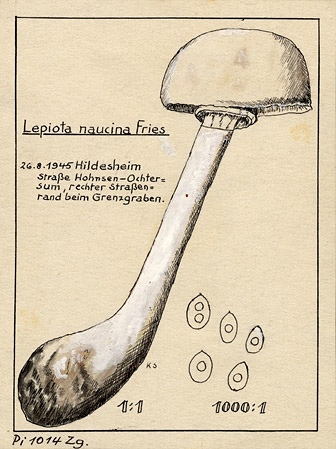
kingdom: Fungi
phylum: Basidiomycota
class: Agaricomycetes
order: Agaricales
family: Agaricaceae
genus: Leucoagaricus
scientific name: Leucoagaricus leucothites
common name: White dapperling
